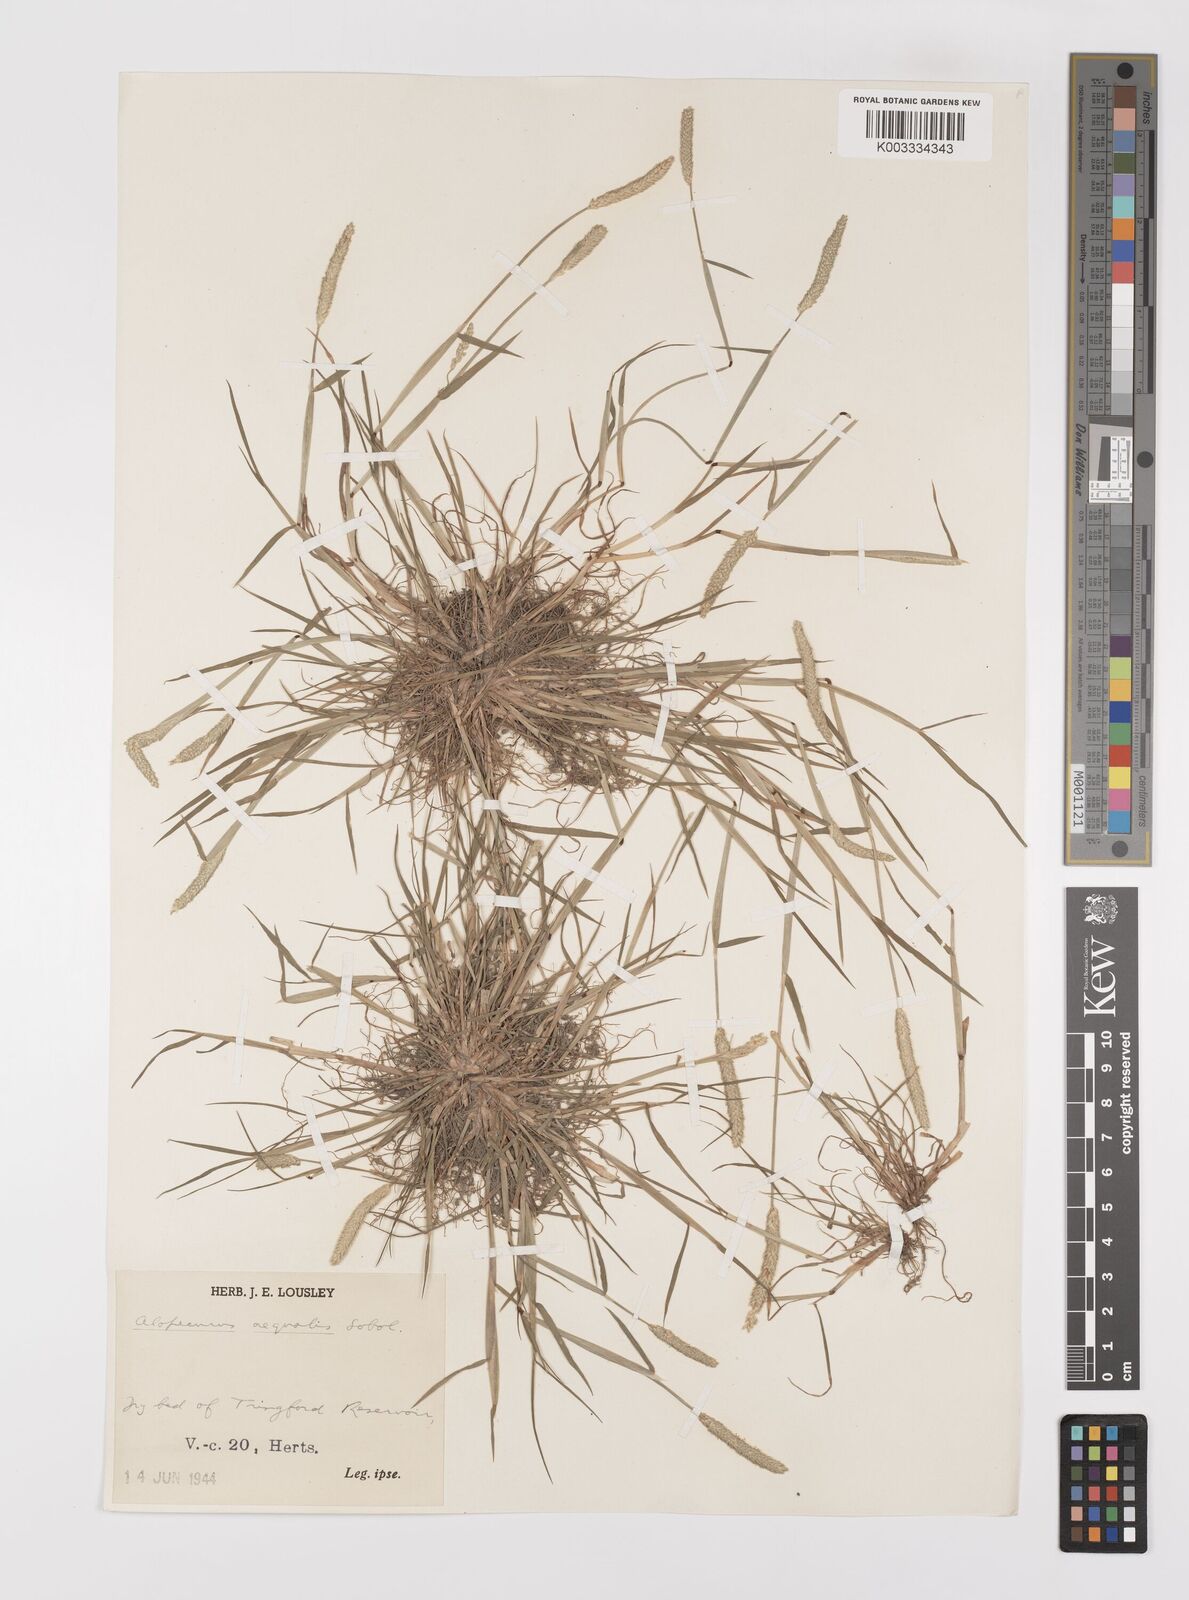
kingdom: Plantae
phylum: Tracheophyta
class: Liliopsida
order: Poales
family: Poaceae
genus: Alopecurus
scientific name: Alopecurus aequalis
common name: Orange foxtail
